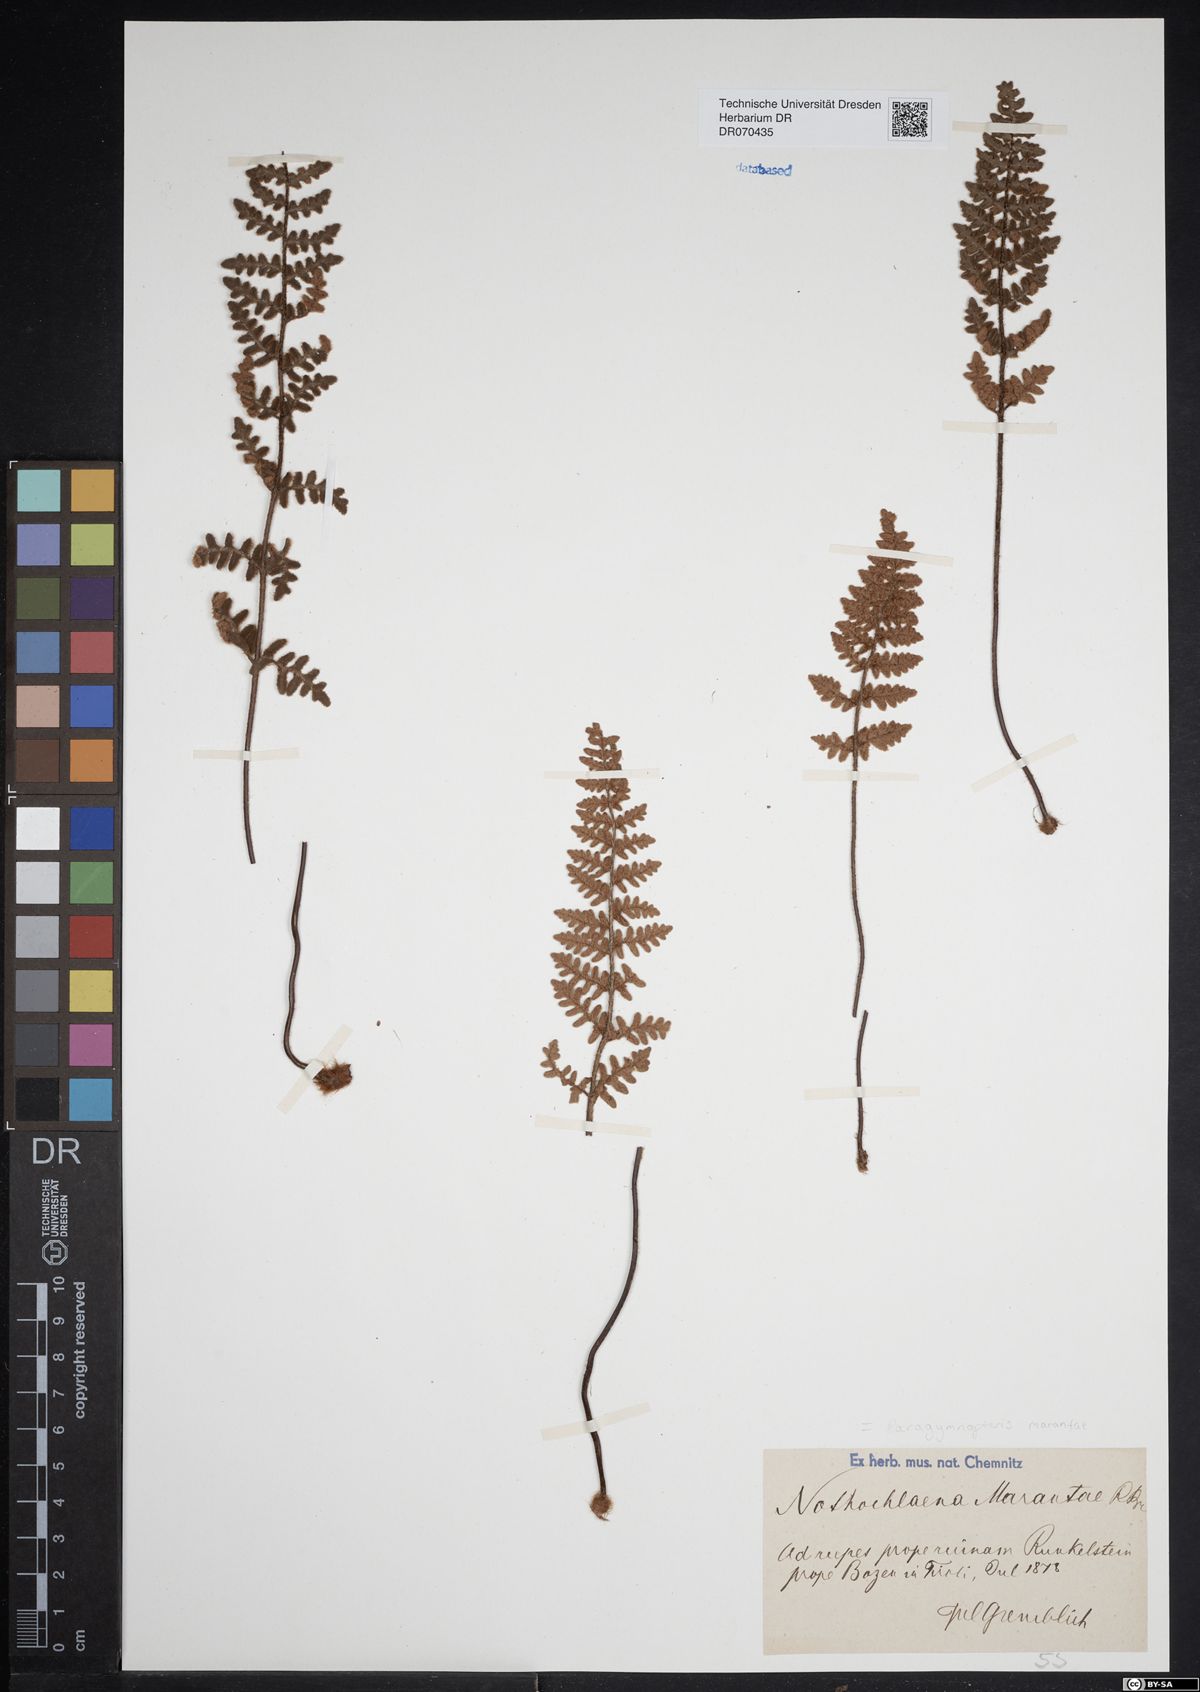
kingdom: Plantae
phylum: Tracheophyta
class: Polypodiopsida
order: Polypodiales
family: Pteridaceae
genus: Paragymnopteris
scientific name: Paragymnopteris marantae
